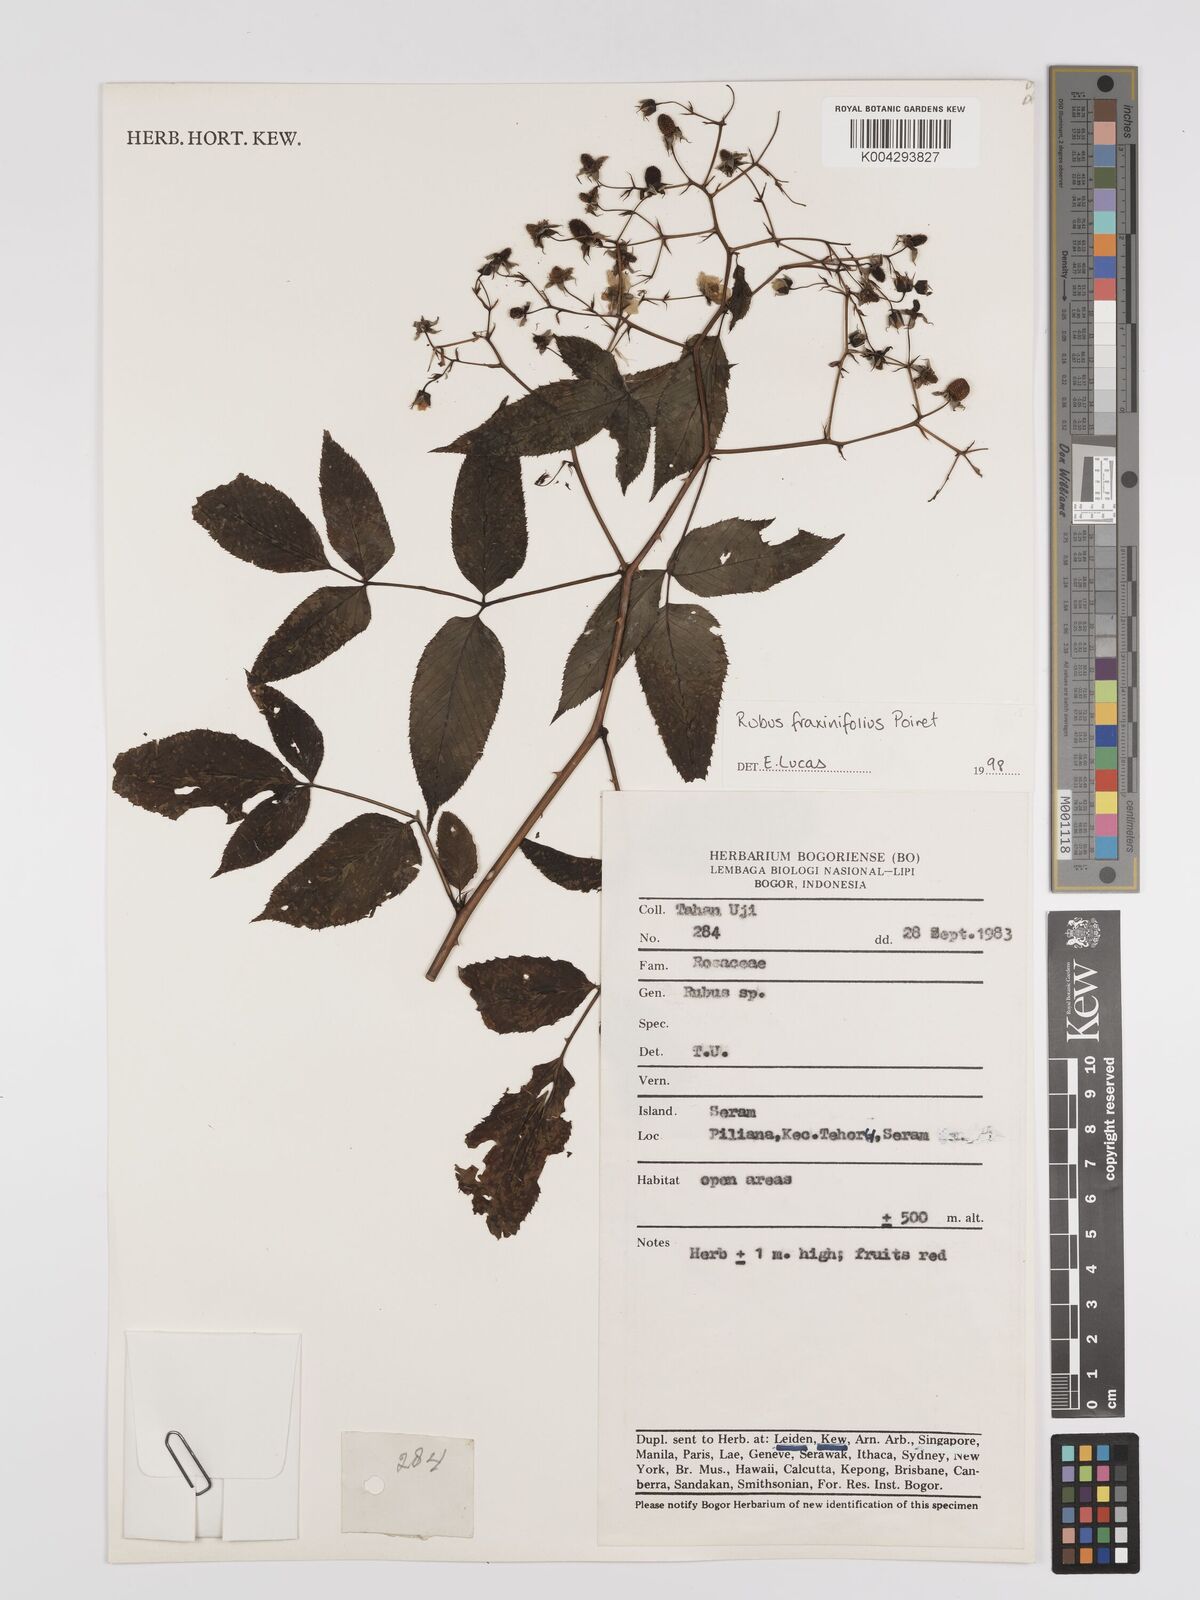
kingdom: Plantae
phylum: Tracheophyta
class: Magnoliopsida
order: Rosales
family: Rosaceae
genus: Rubus
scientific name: Rubus fraxinifolius
